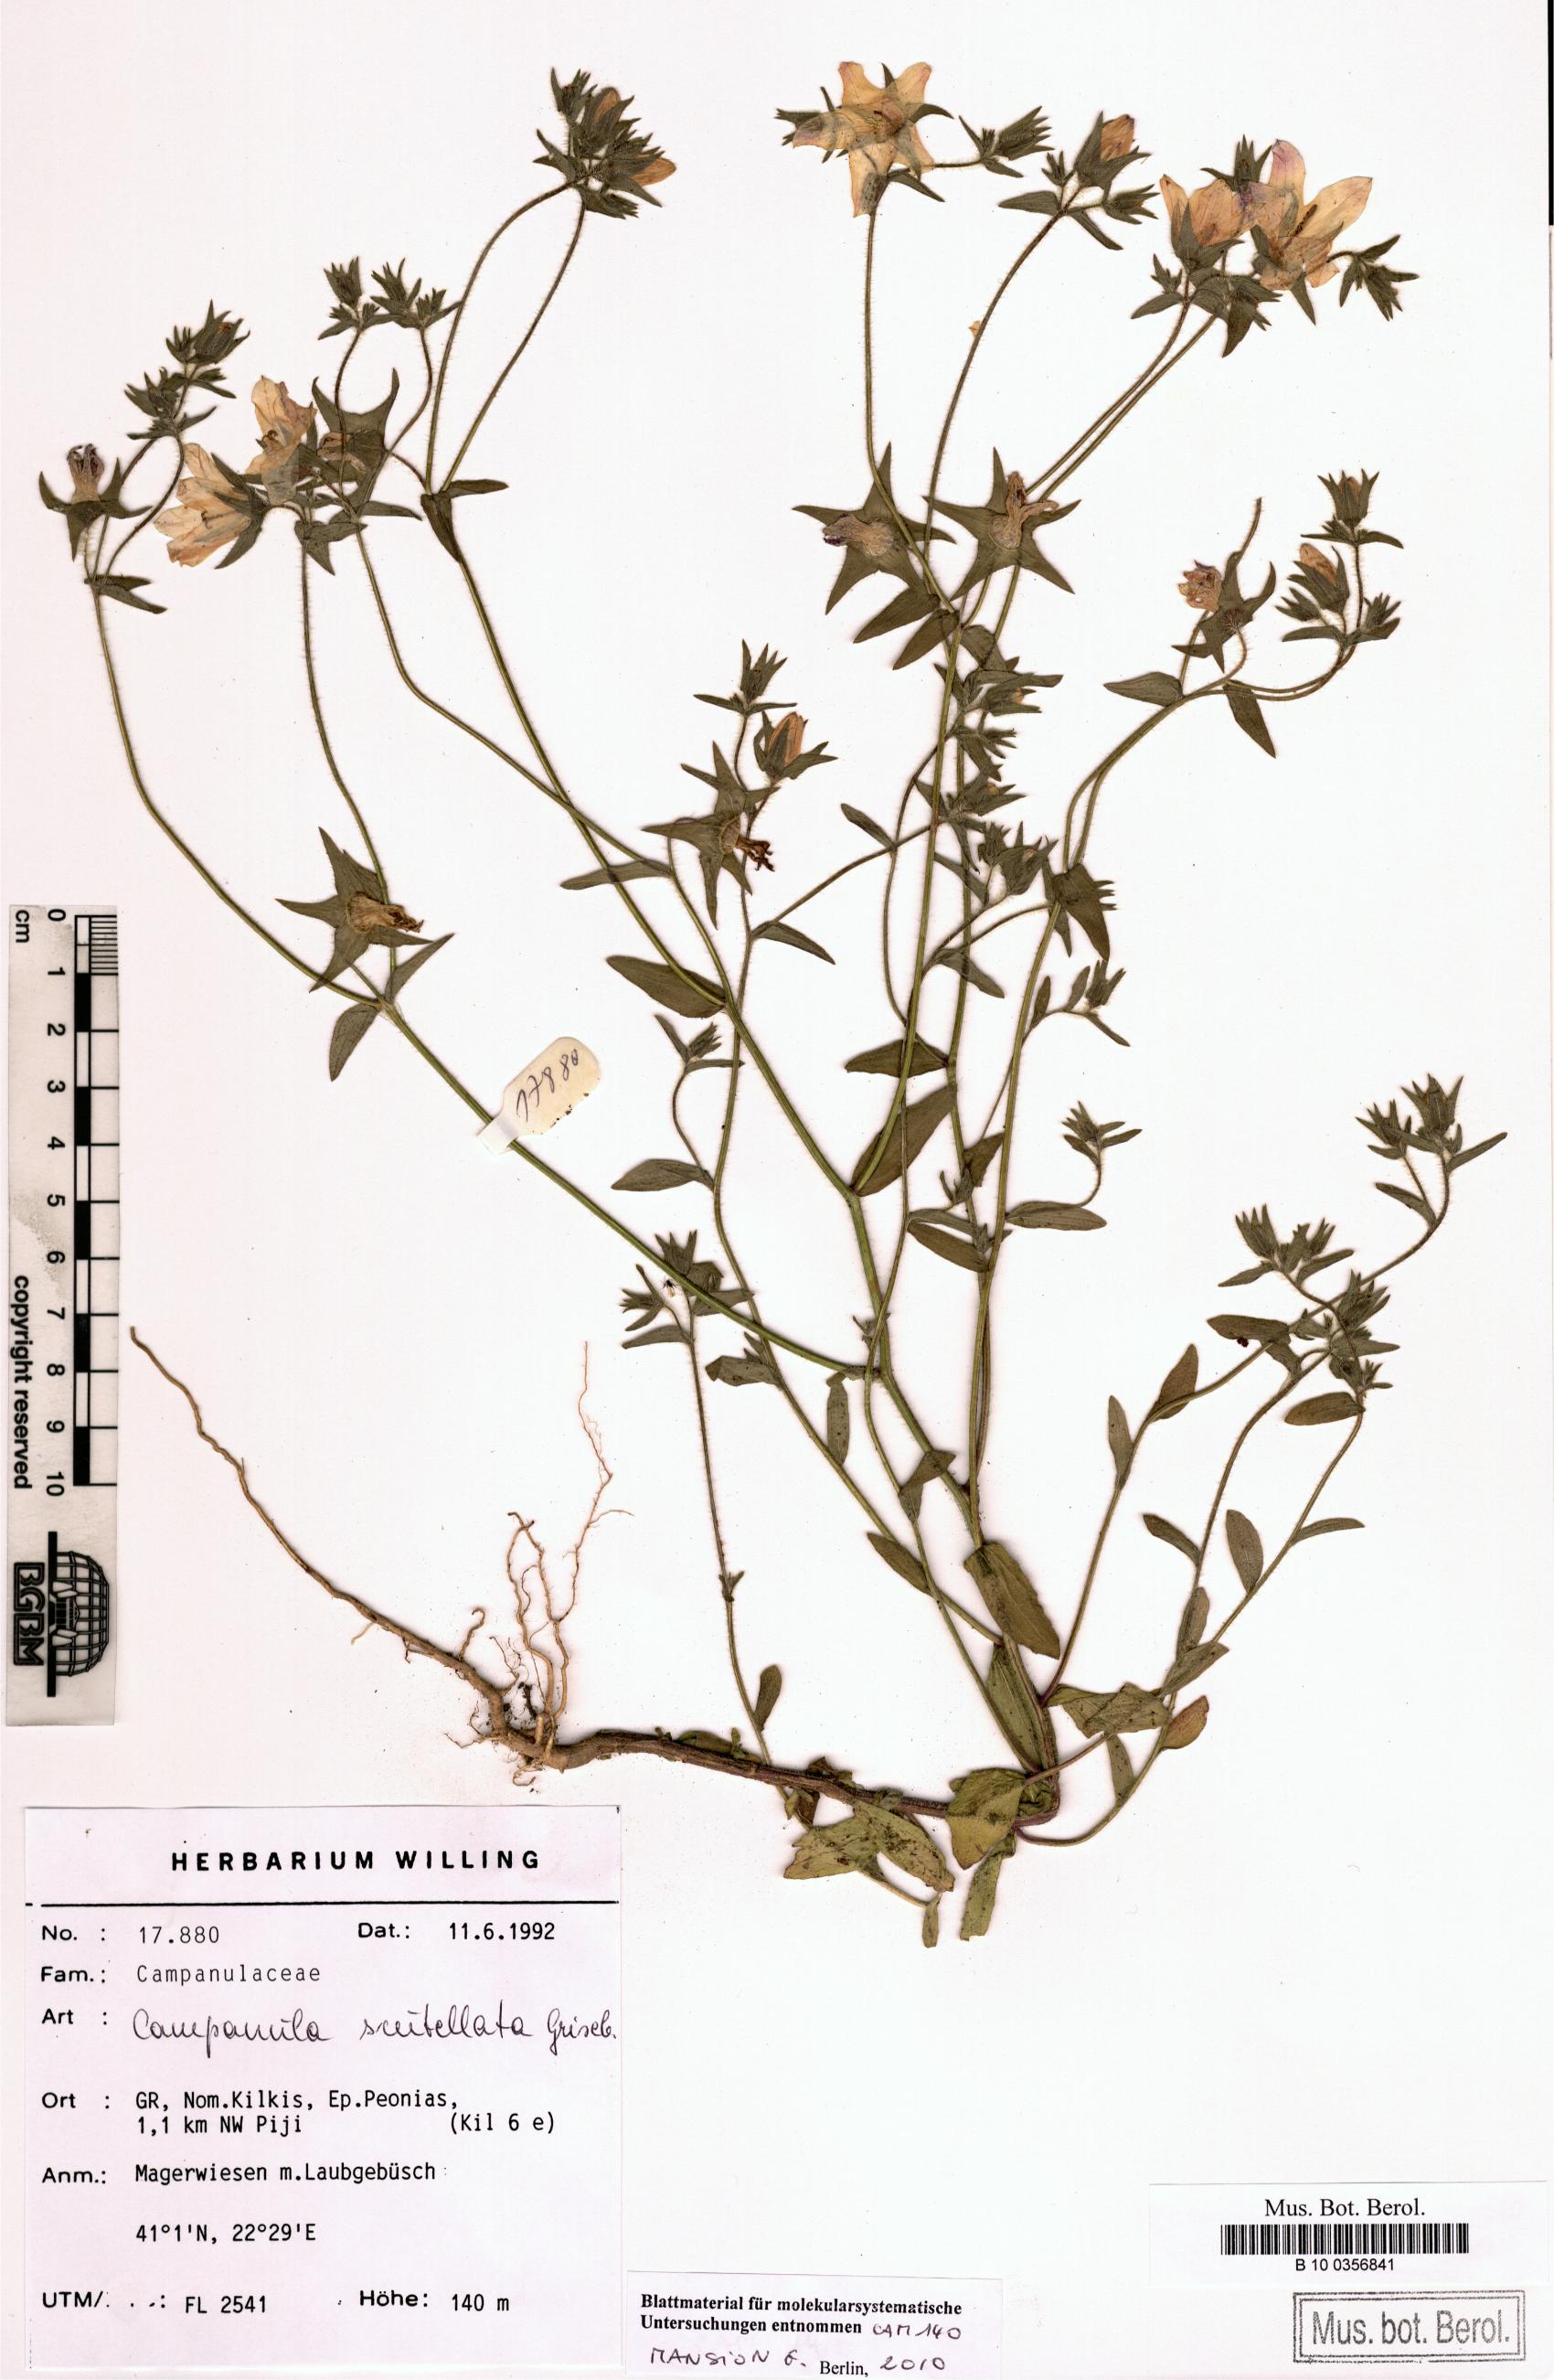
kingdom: Plantae
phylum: Tracheophyta
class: Magnoliopsida
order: Asterales
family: Campanulaceae
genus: Campanula
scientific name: Campanula scutellata
